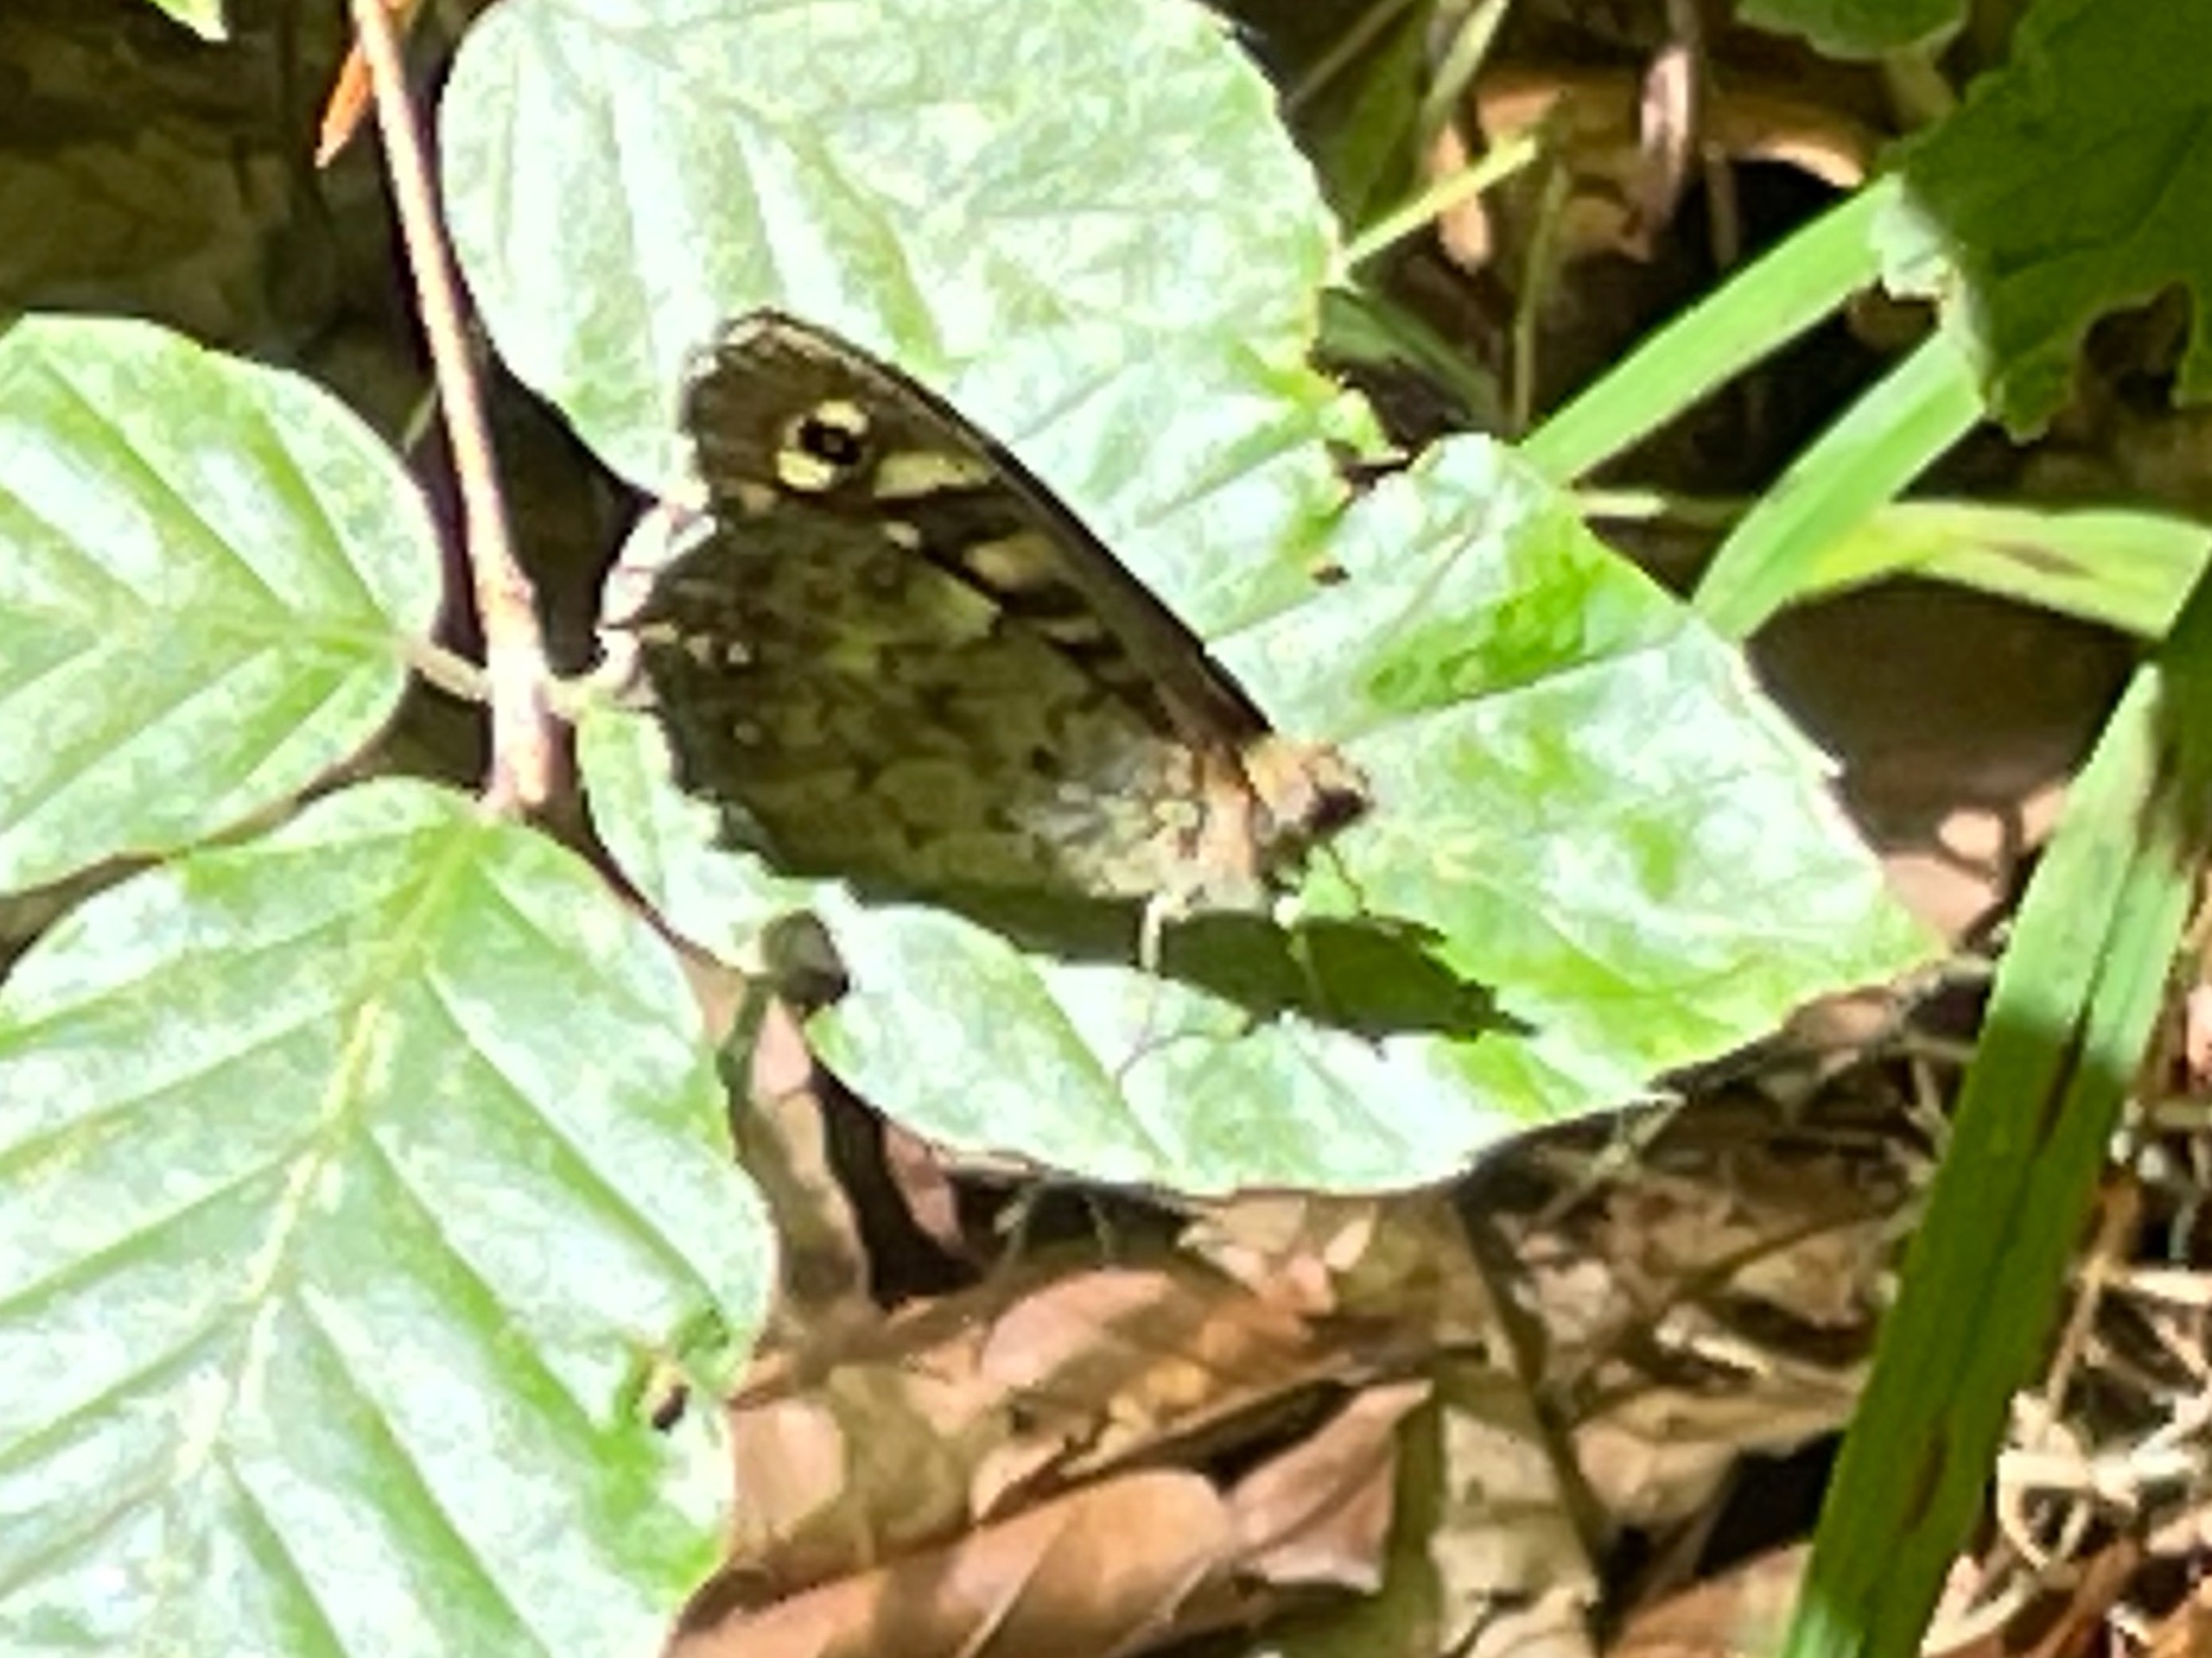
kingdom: Animalia
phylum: Arthropoda
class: Insecta
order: Lepidoptera
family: Nymphalidae
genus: Pararge
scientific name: Pararge aegeria
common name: Skovrandøje
